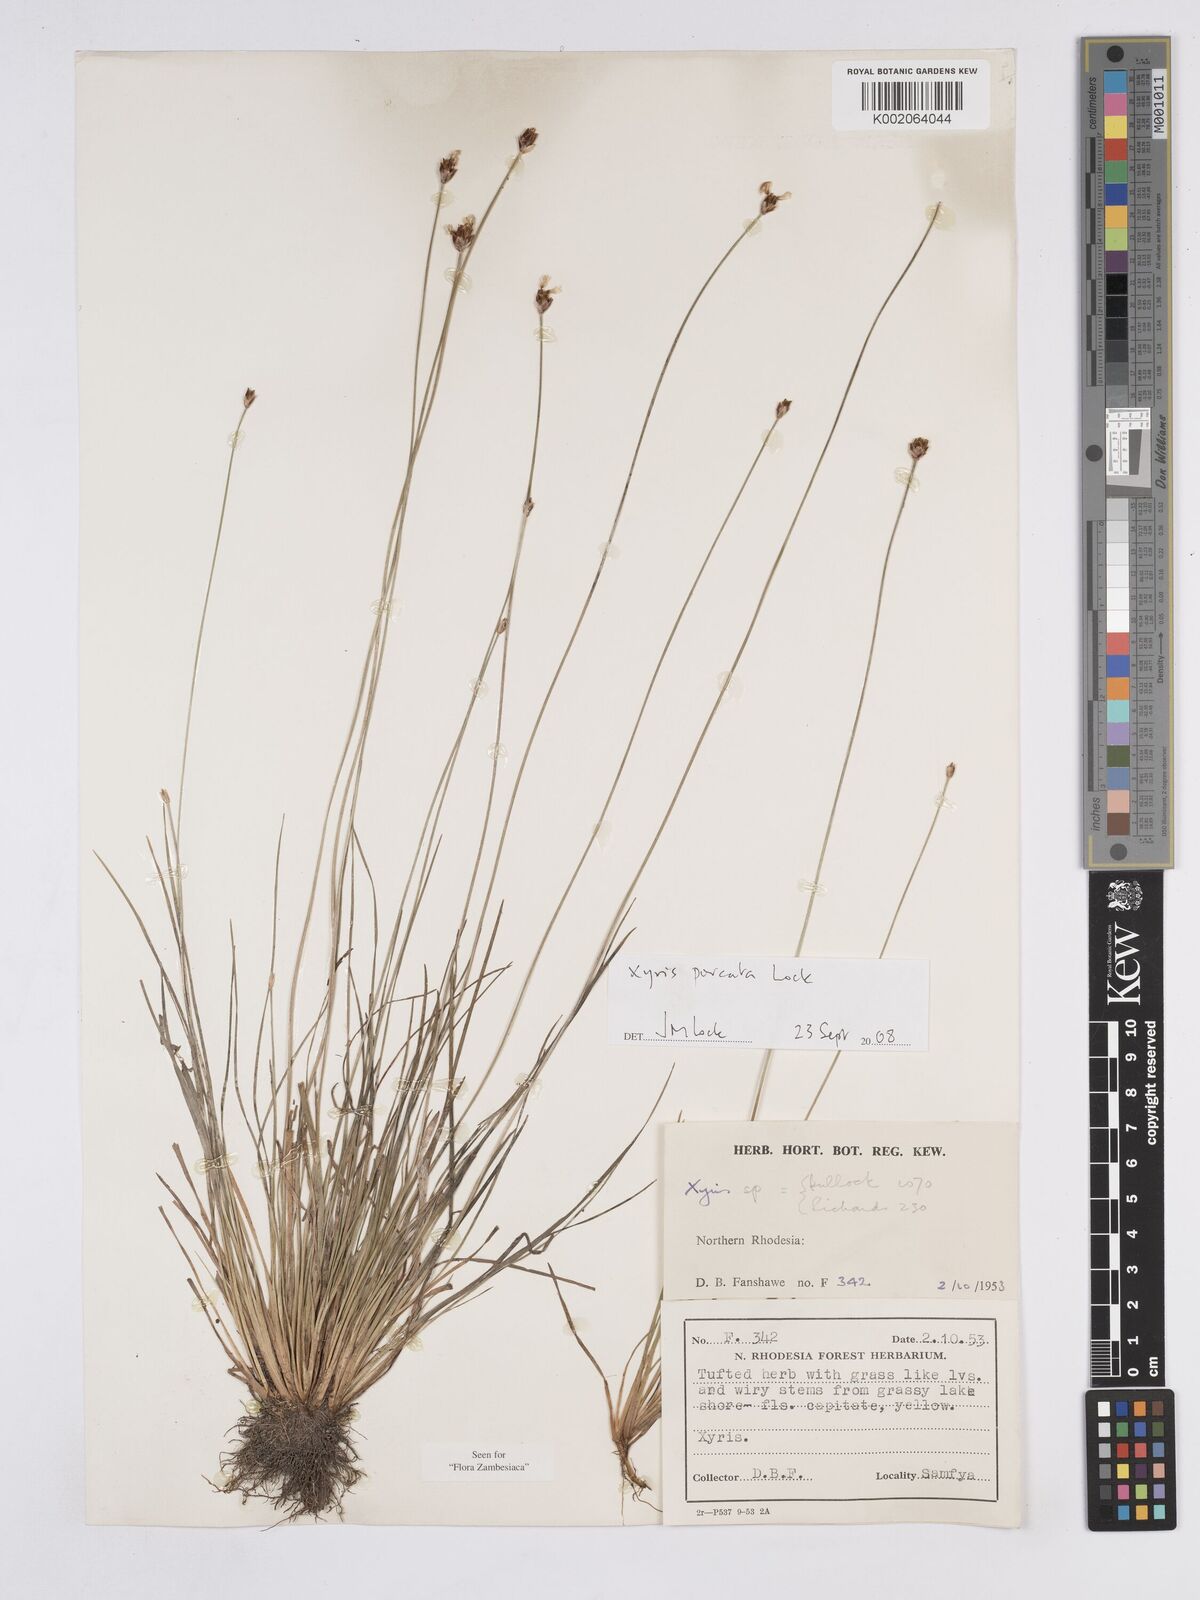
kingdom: Plantae
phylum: Tracheophyta
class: Liliopsida
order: Poales
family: Xyridaceae
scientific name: Xyridaceae
